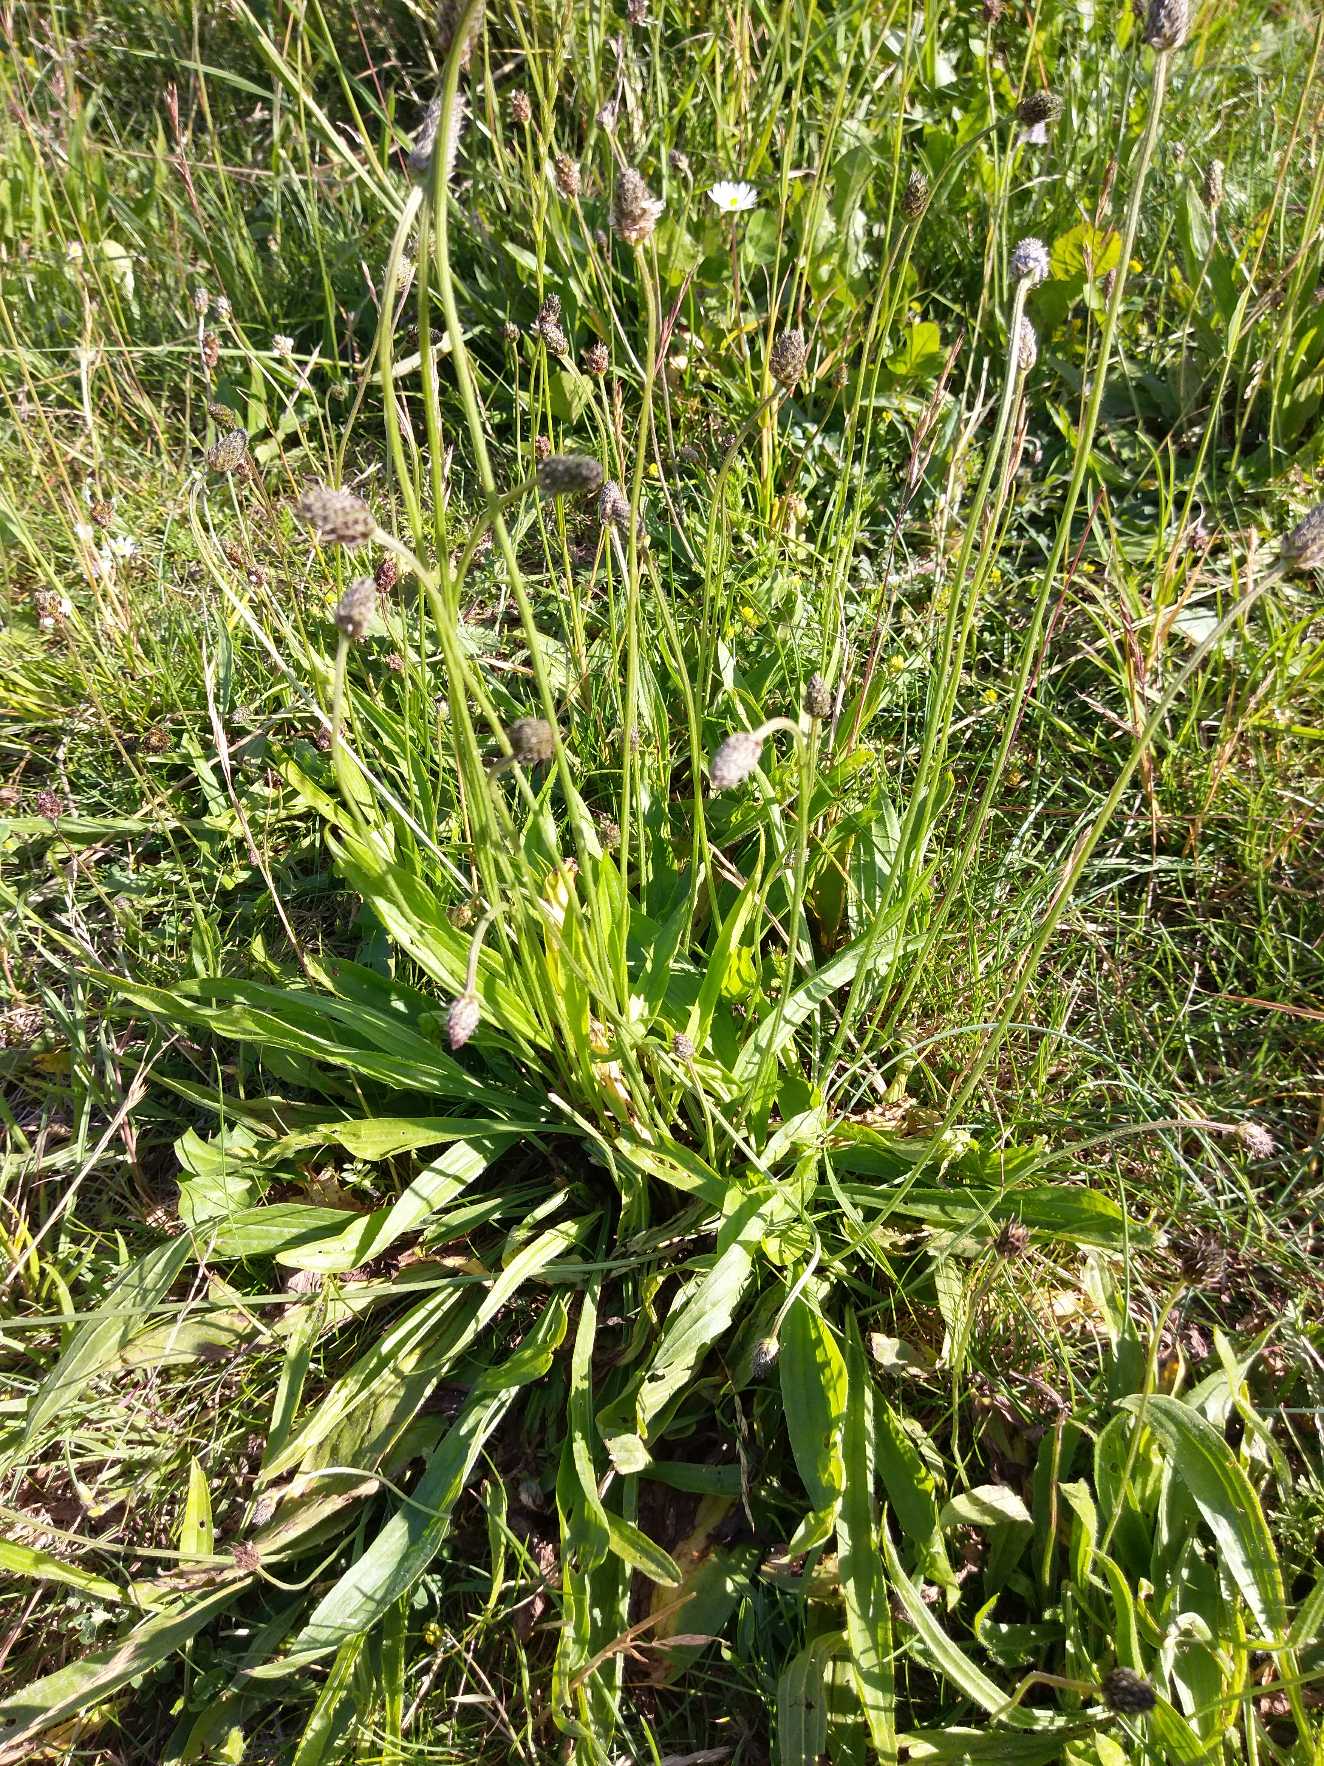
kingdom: Plantae
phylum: Tracheophyta
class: Magnoliopsida
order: Lamiales
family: Plantaginaceae
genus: Plantago
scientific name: Plantago lanceolata
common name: Lancet-vejbred
